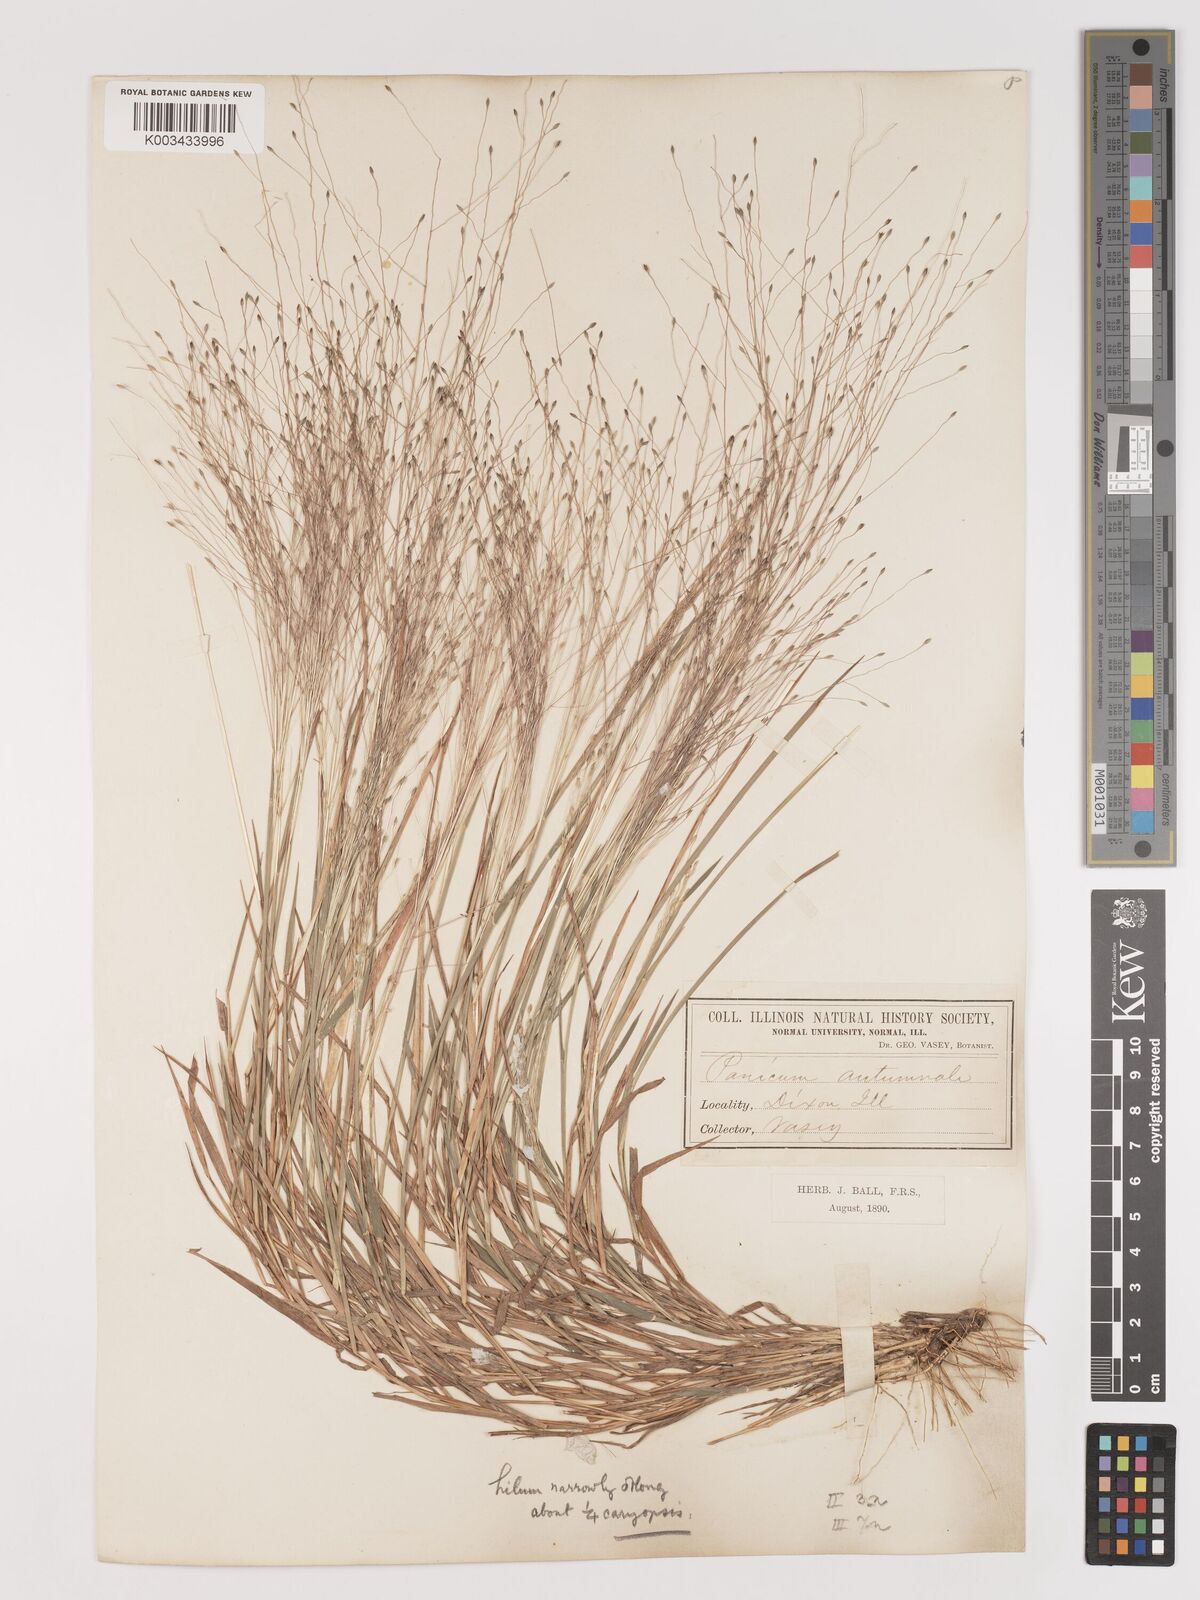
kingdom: Plantae
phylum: Tracheophyta
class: Liliopsida
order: Poales
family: Poaceae
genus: Digitaria
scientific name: Digitaria
